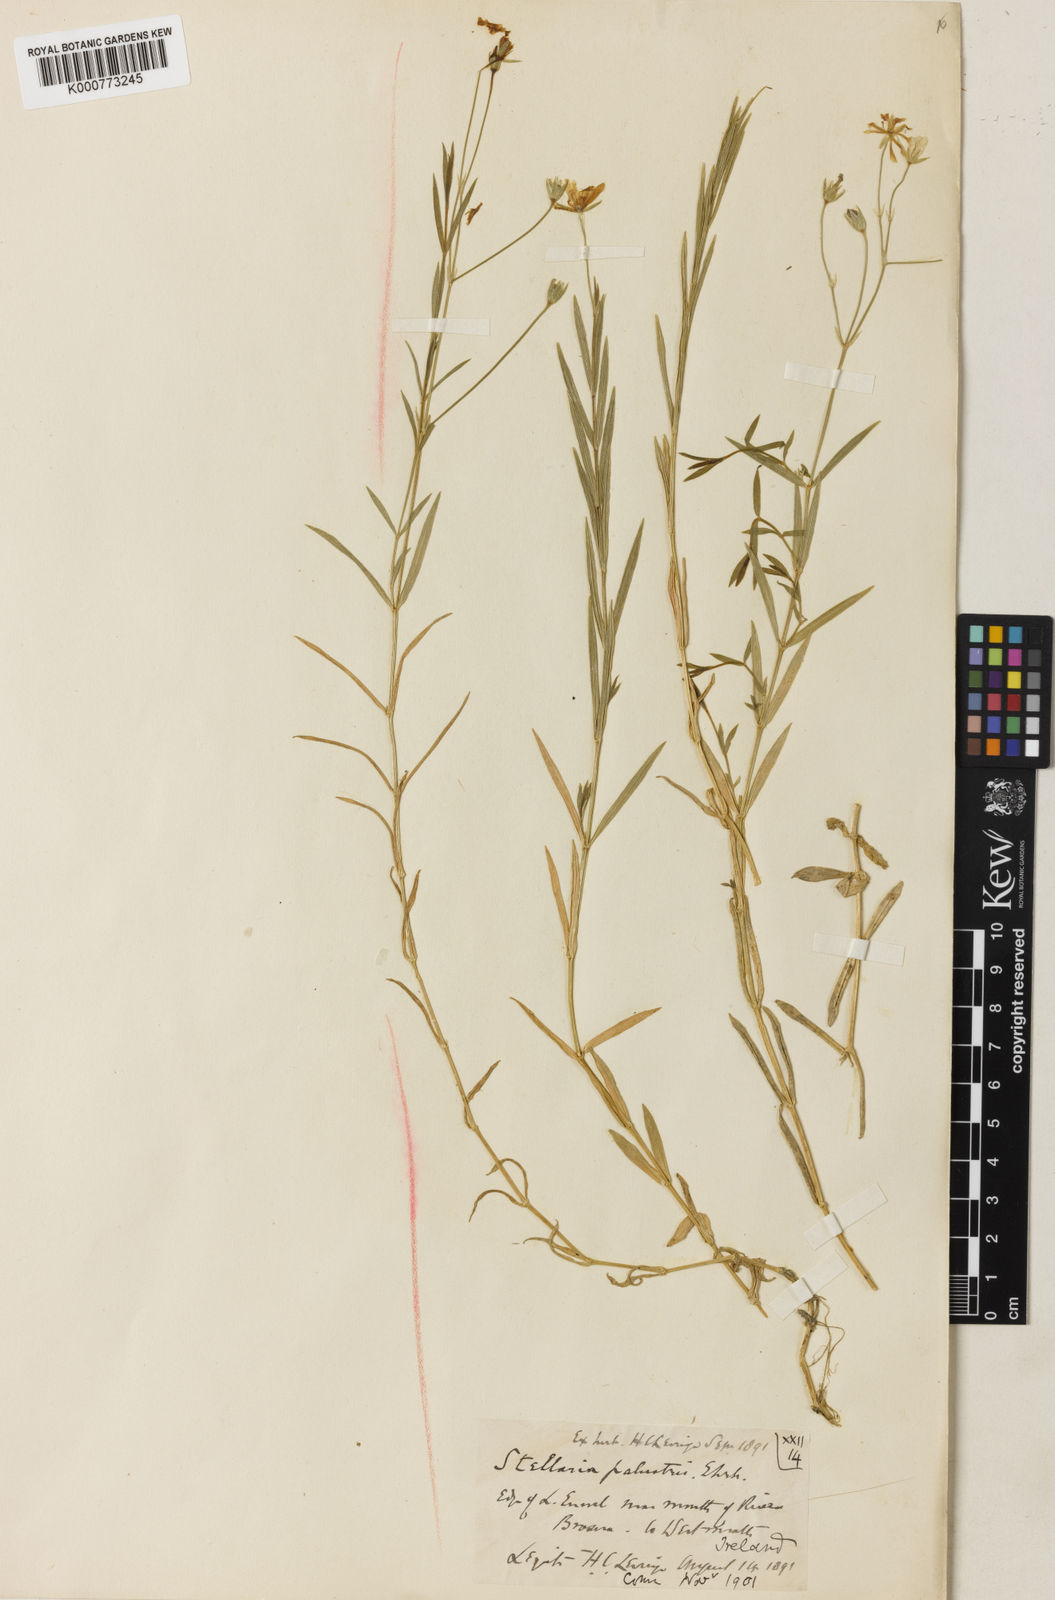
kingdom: Plantae
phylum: Tracheophyta
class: Magnoliopsida
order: Caryophyllales
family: Caryophyllaceae
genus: Stellaria
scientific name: Stellaria
